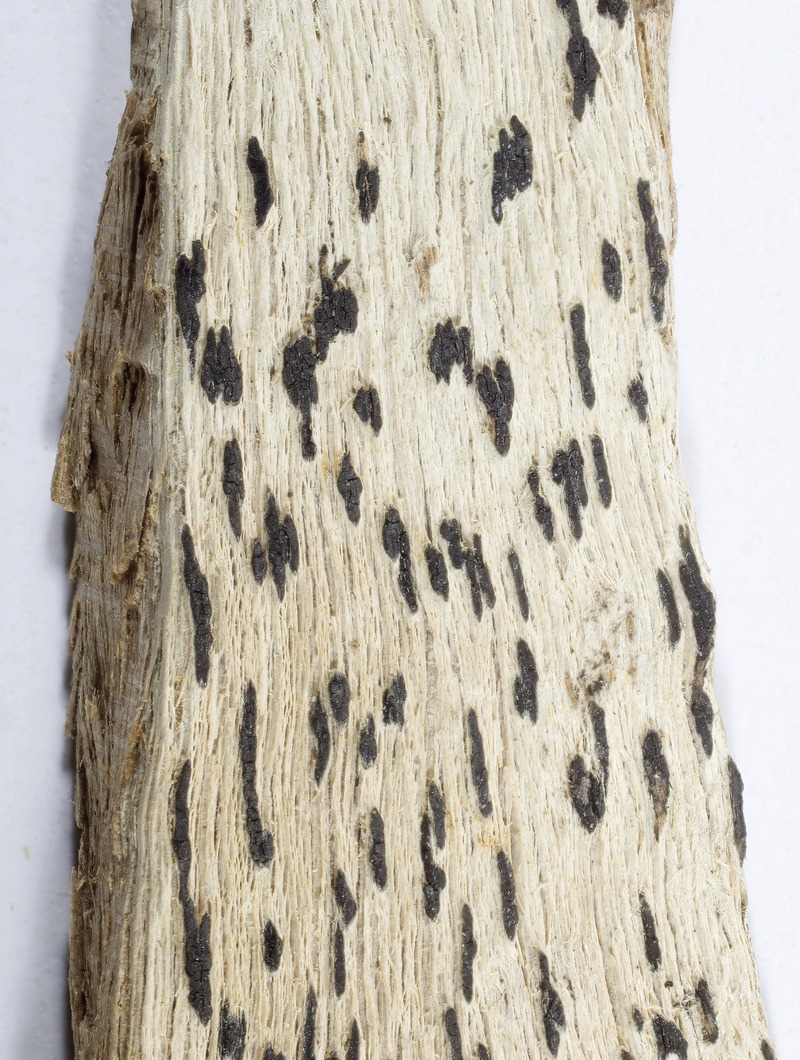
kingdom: Fungi
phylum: Ascomycota
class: Dothideomycetes
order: Patellariales
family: Patellariaceae
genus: Patellaria
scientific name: Patellaria finkii
